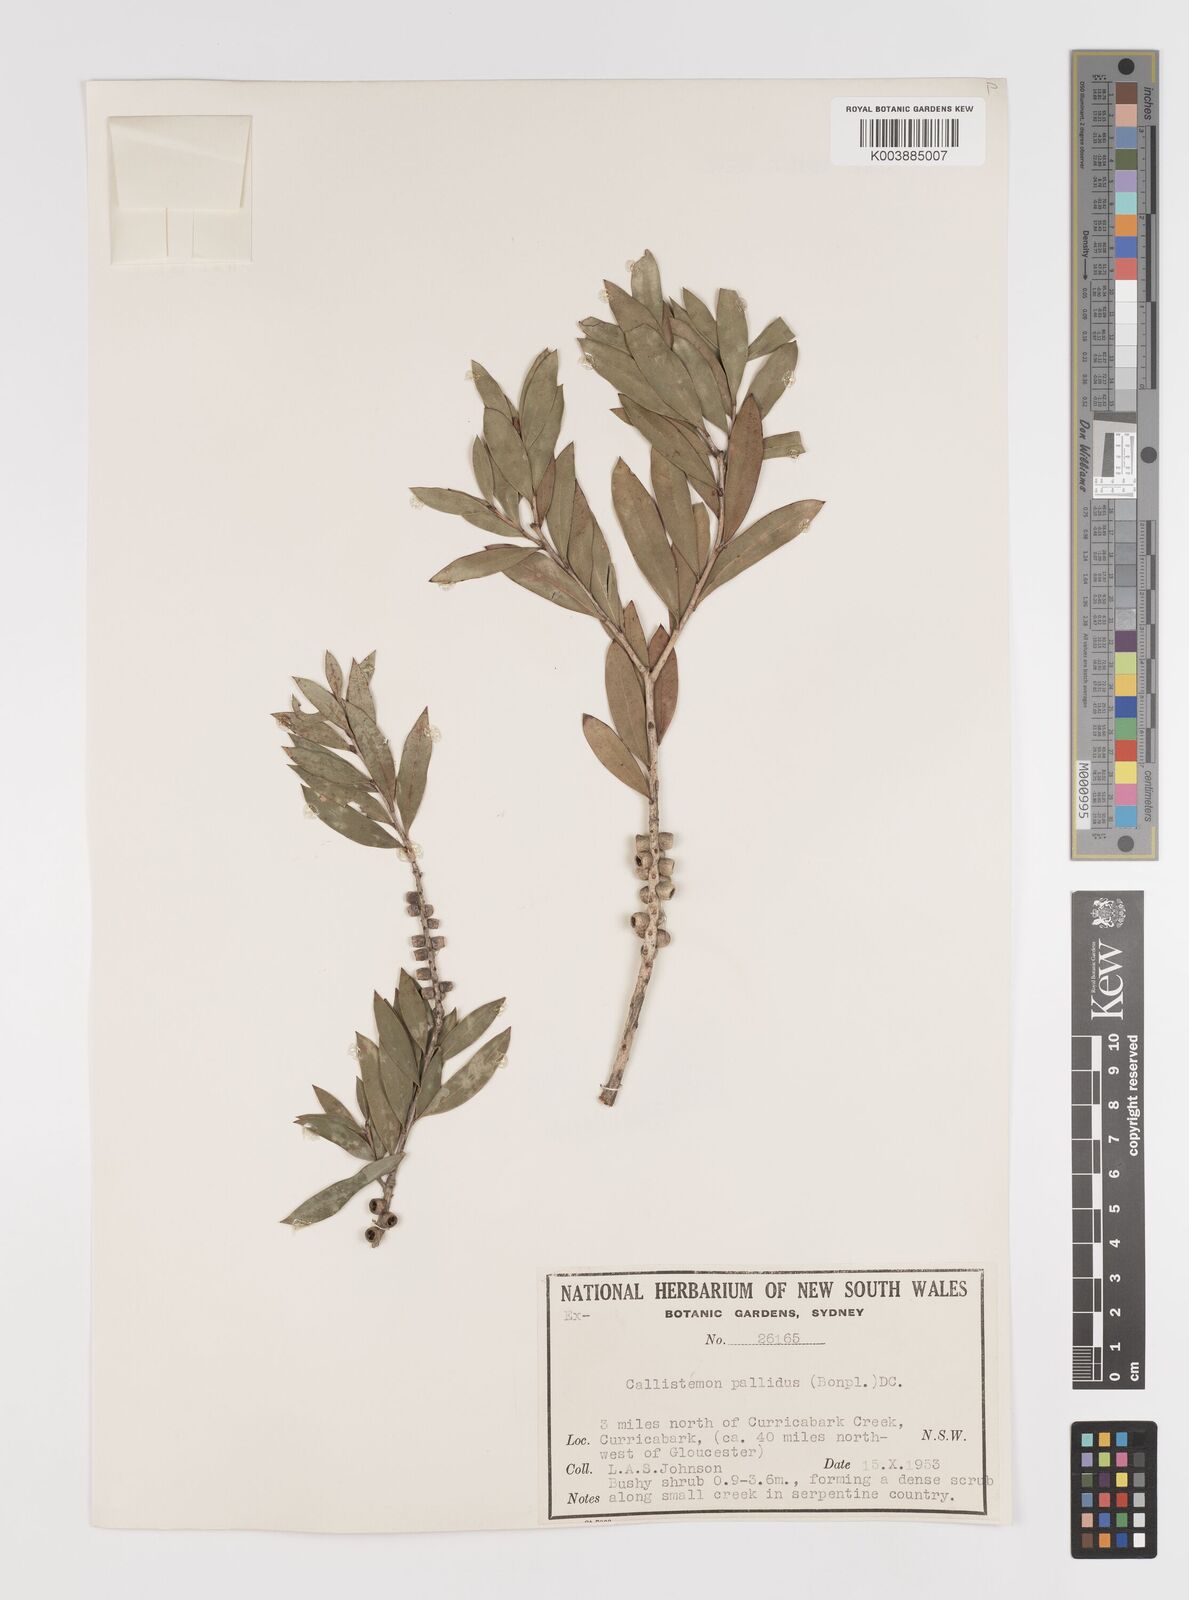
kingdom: Plantae
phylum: Tracheophyta
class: Magnoliopsida
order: Myrtales
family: Myrtaceae
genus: Melaleuca
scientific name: Melaleuca pallida
